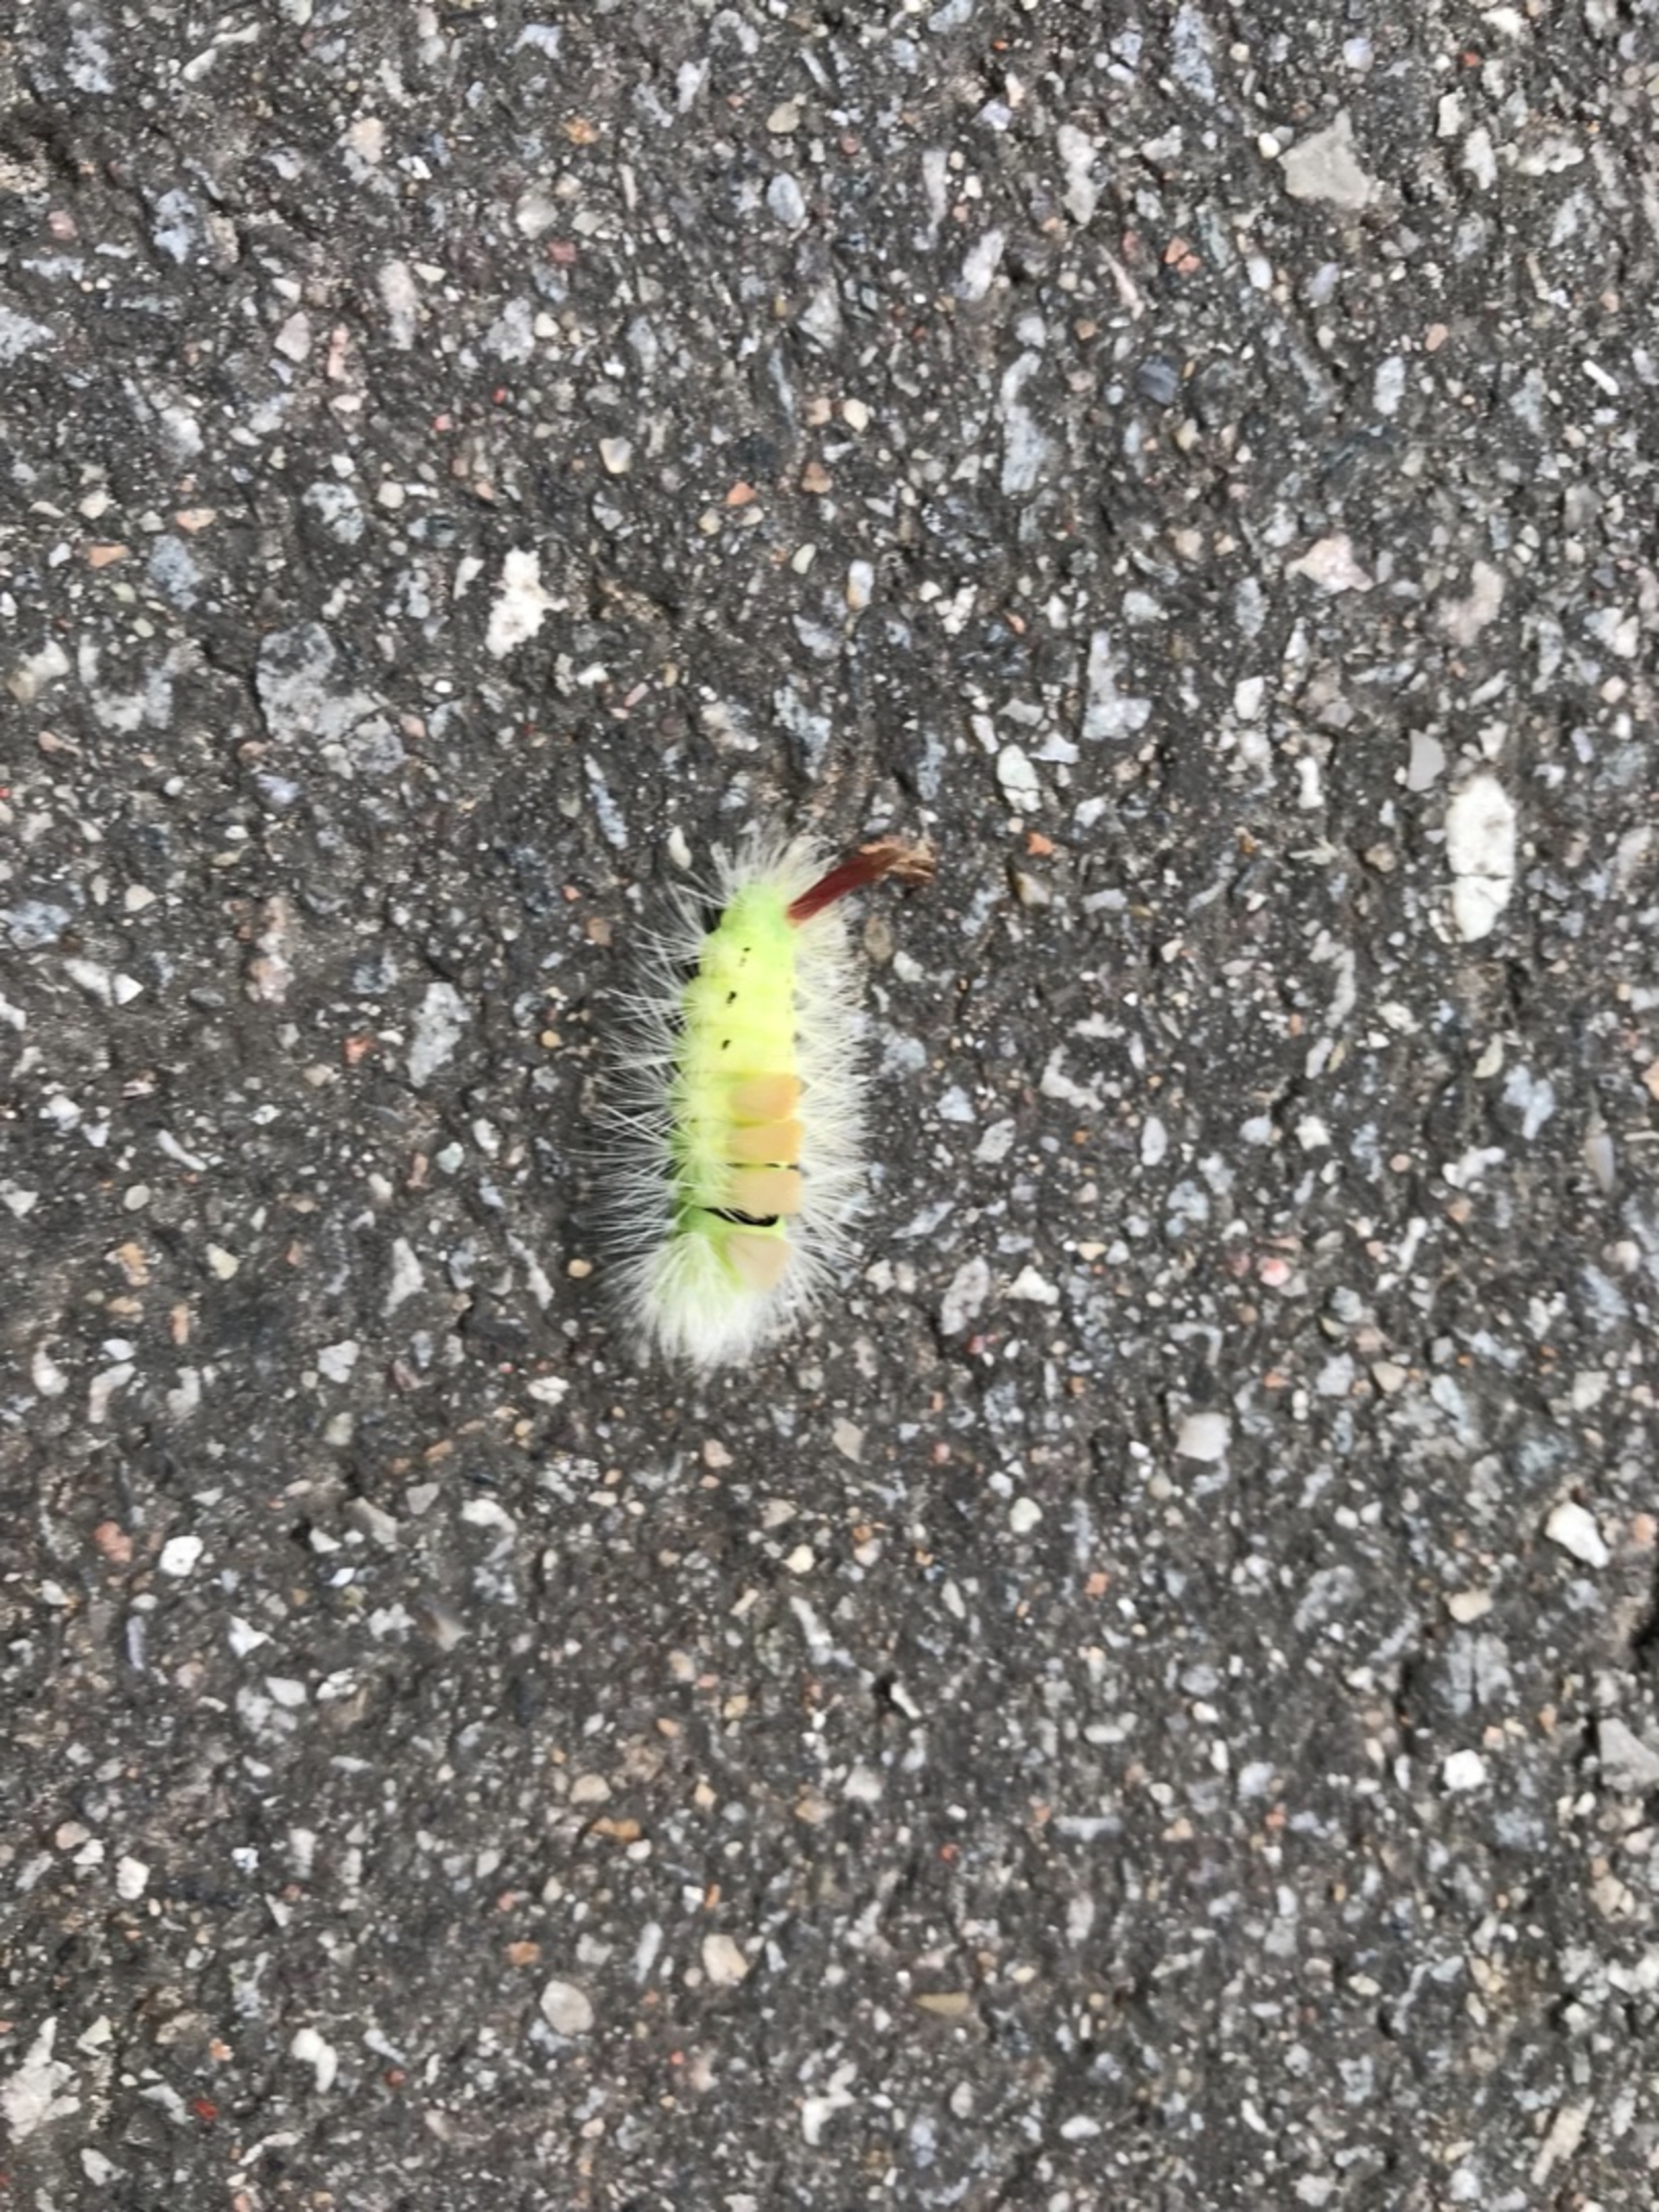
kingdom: Animalia
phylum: Arthropoda
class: Insecta
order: Lepidoptera
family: Erebidae
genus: Calliteara
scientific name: Calliteara pudibunda
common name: Bøgenonne
